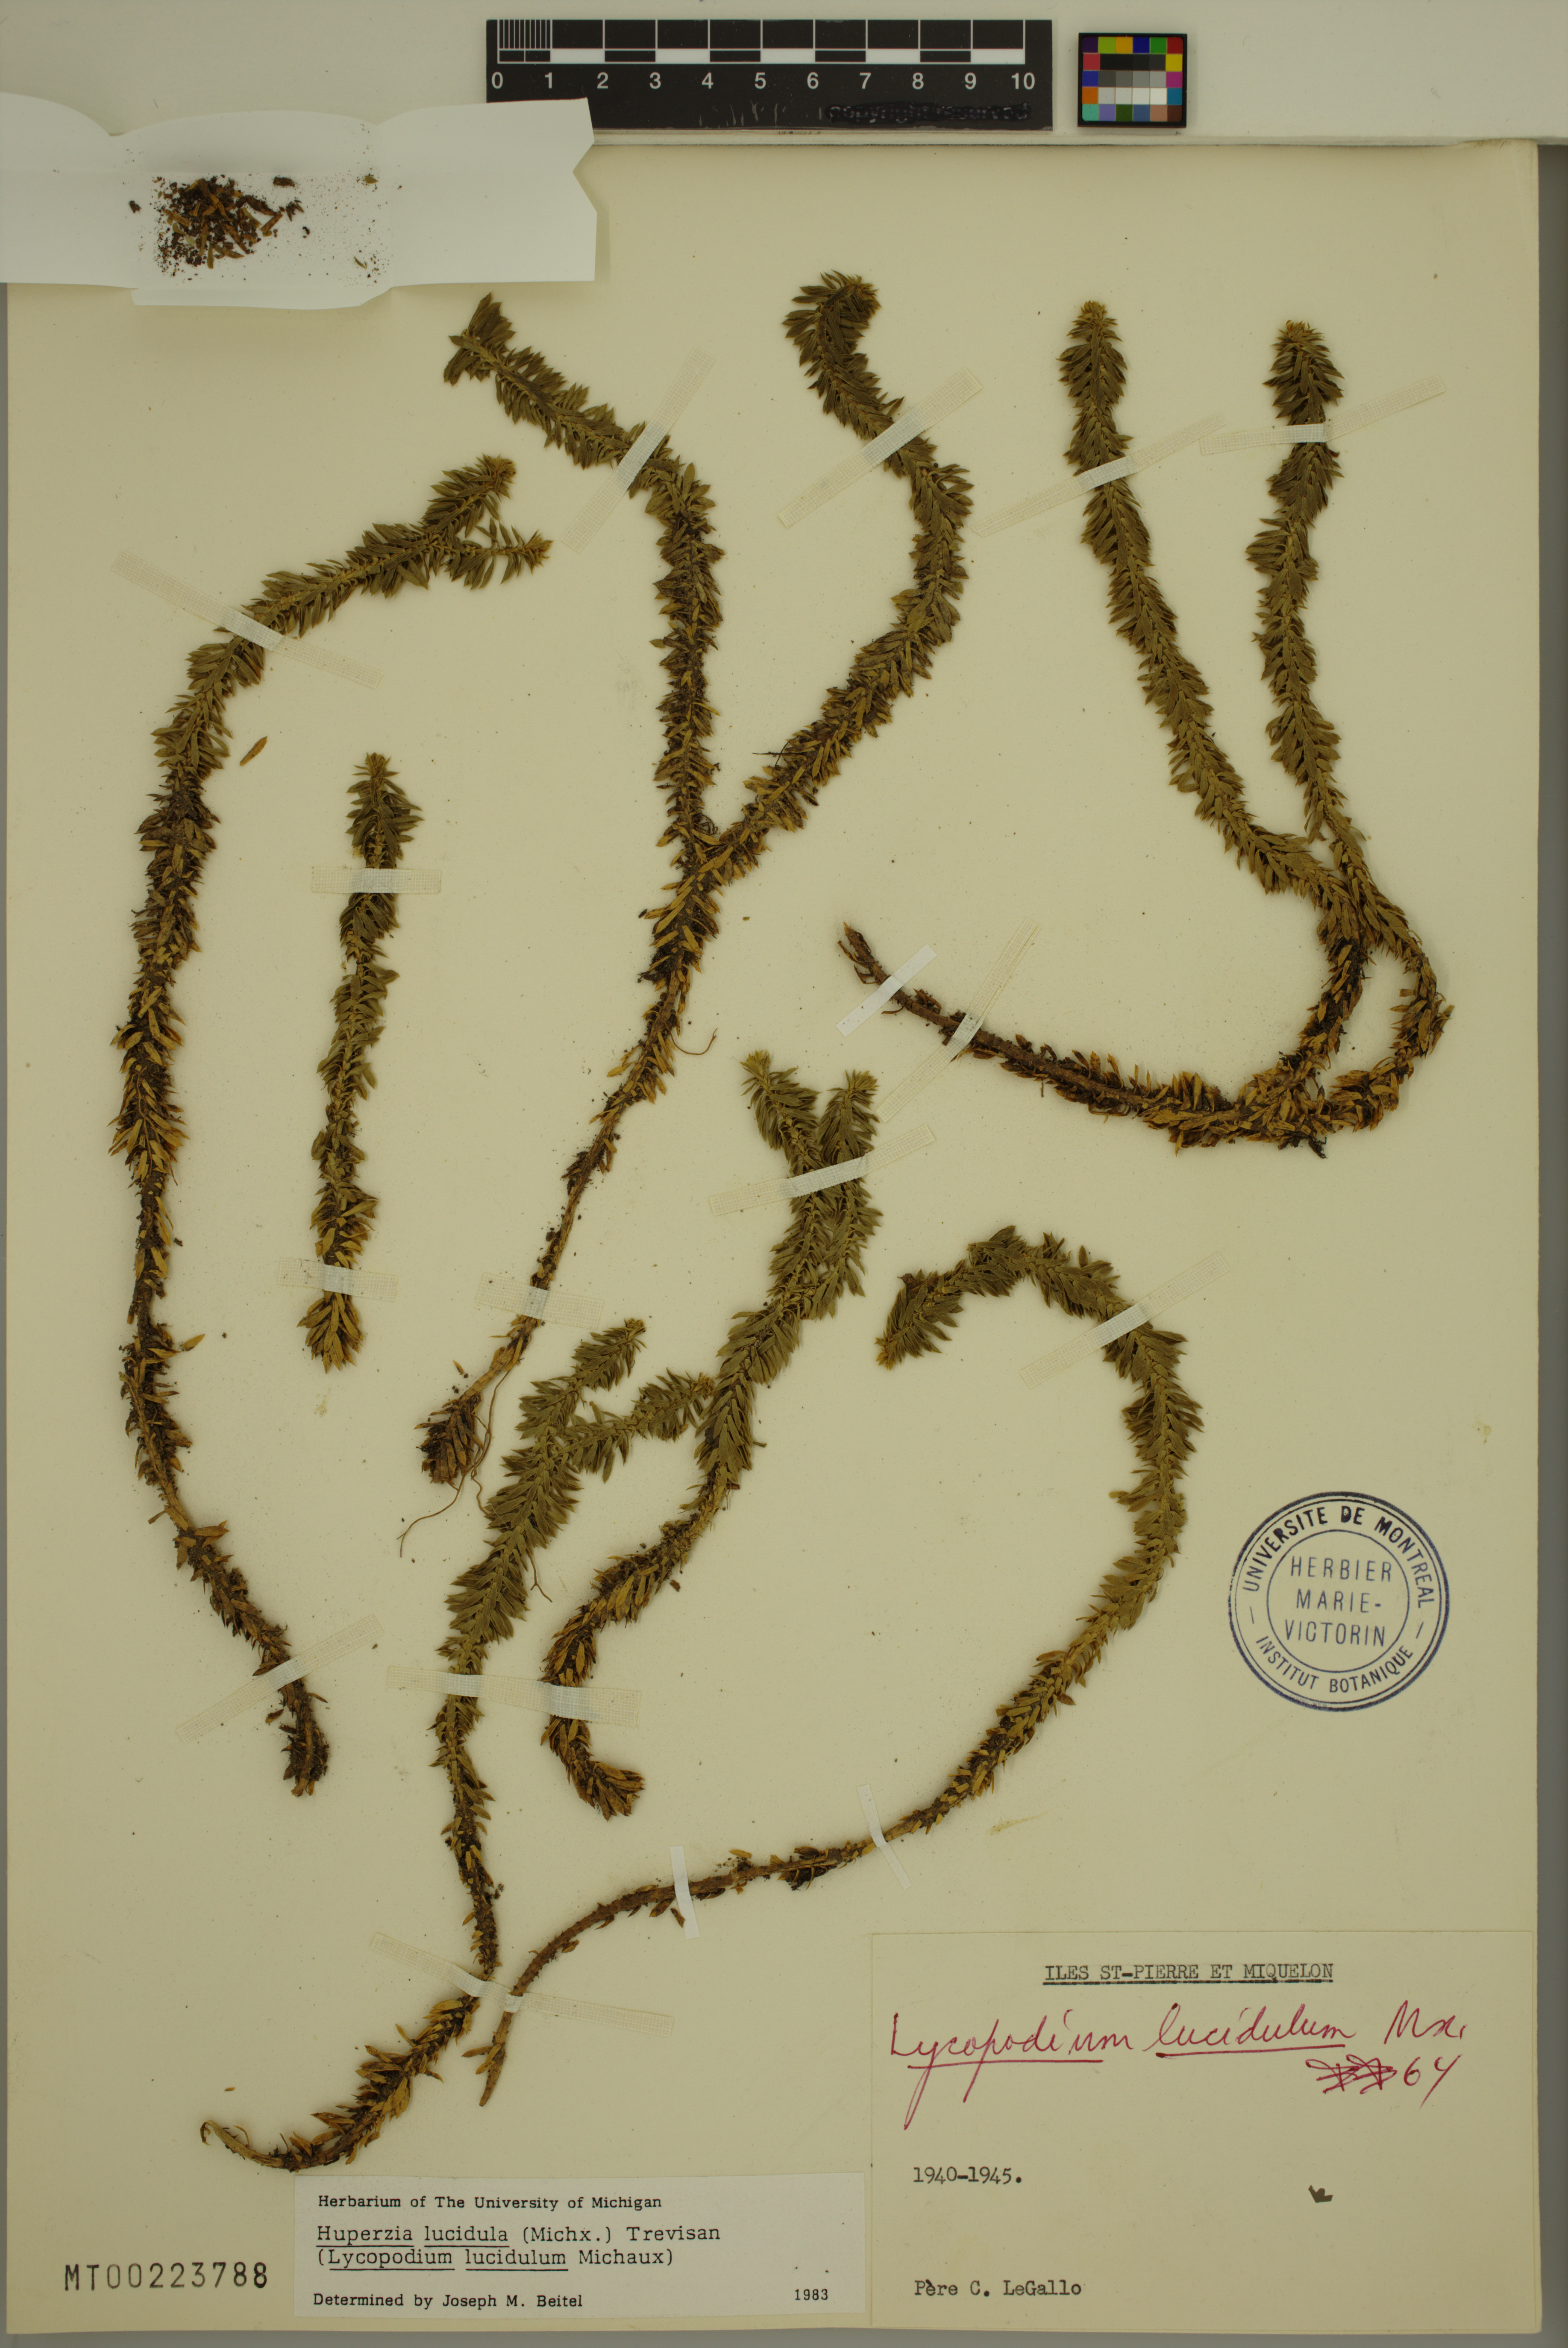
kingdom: Plantae
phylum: Tracheophyta
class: Lycopodiopsida
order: Lycopodiales
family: Lycopodiaceae
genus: Huperzia
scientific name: Huperzia lucidula
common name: Shining clubmoss
